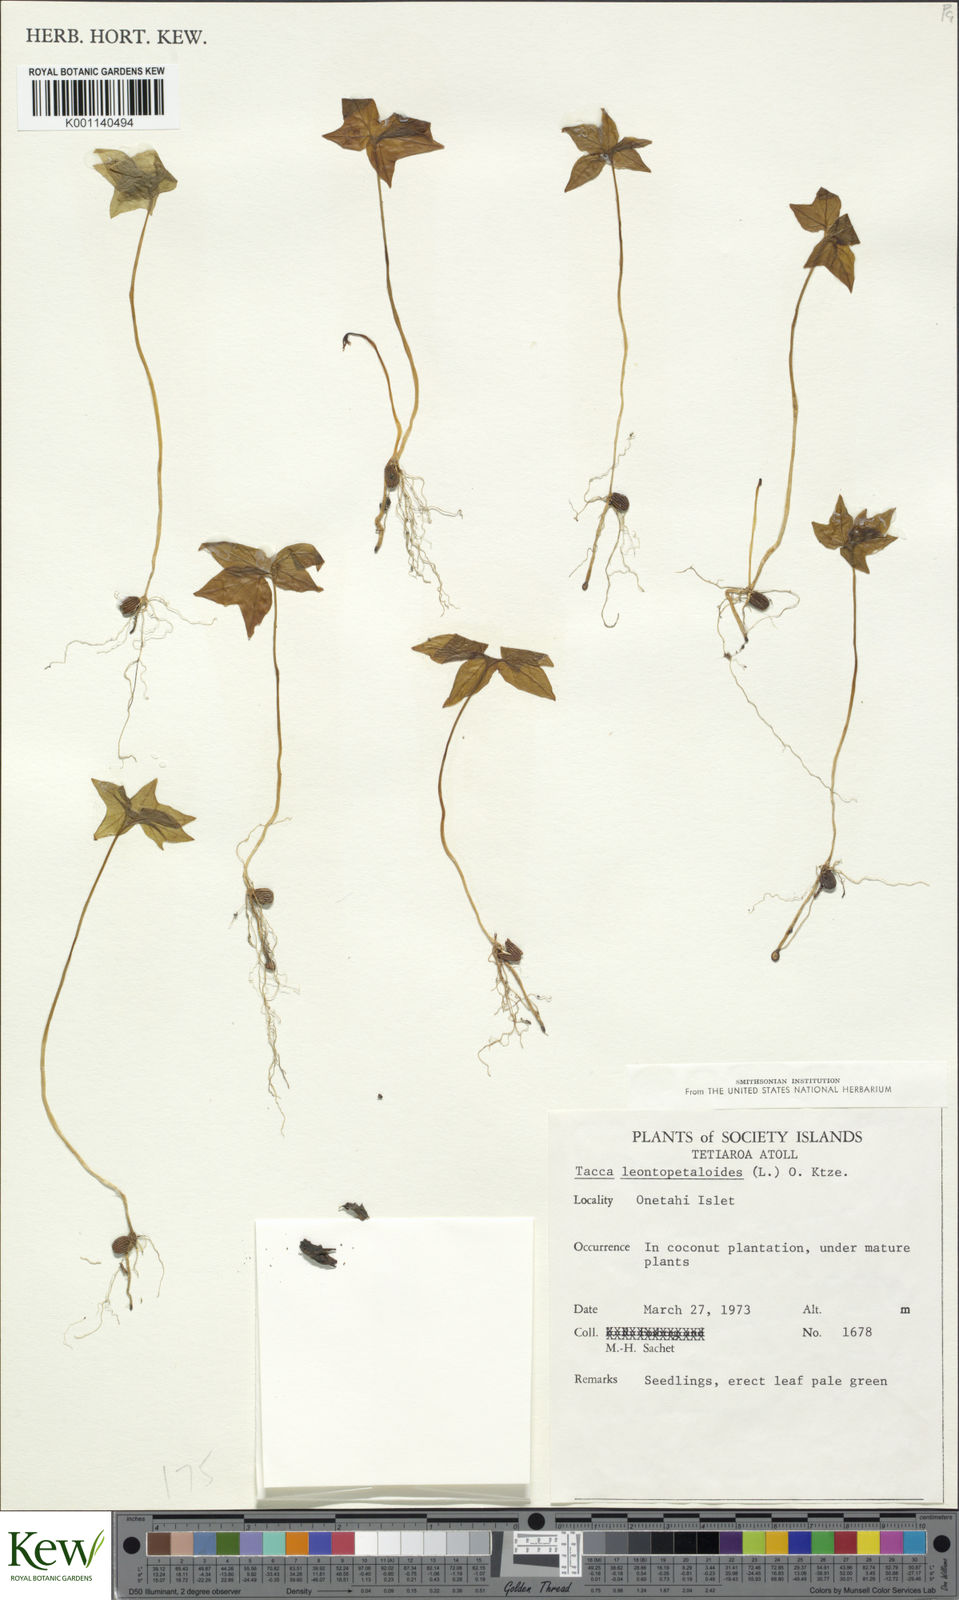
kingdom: Plantae
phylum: Tracheophyta
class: Liliopsida
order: Dioscoreales
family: Dioscoreaceae
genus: Tacca
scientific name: Tacca leontopetaloides
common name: Arrowroot
